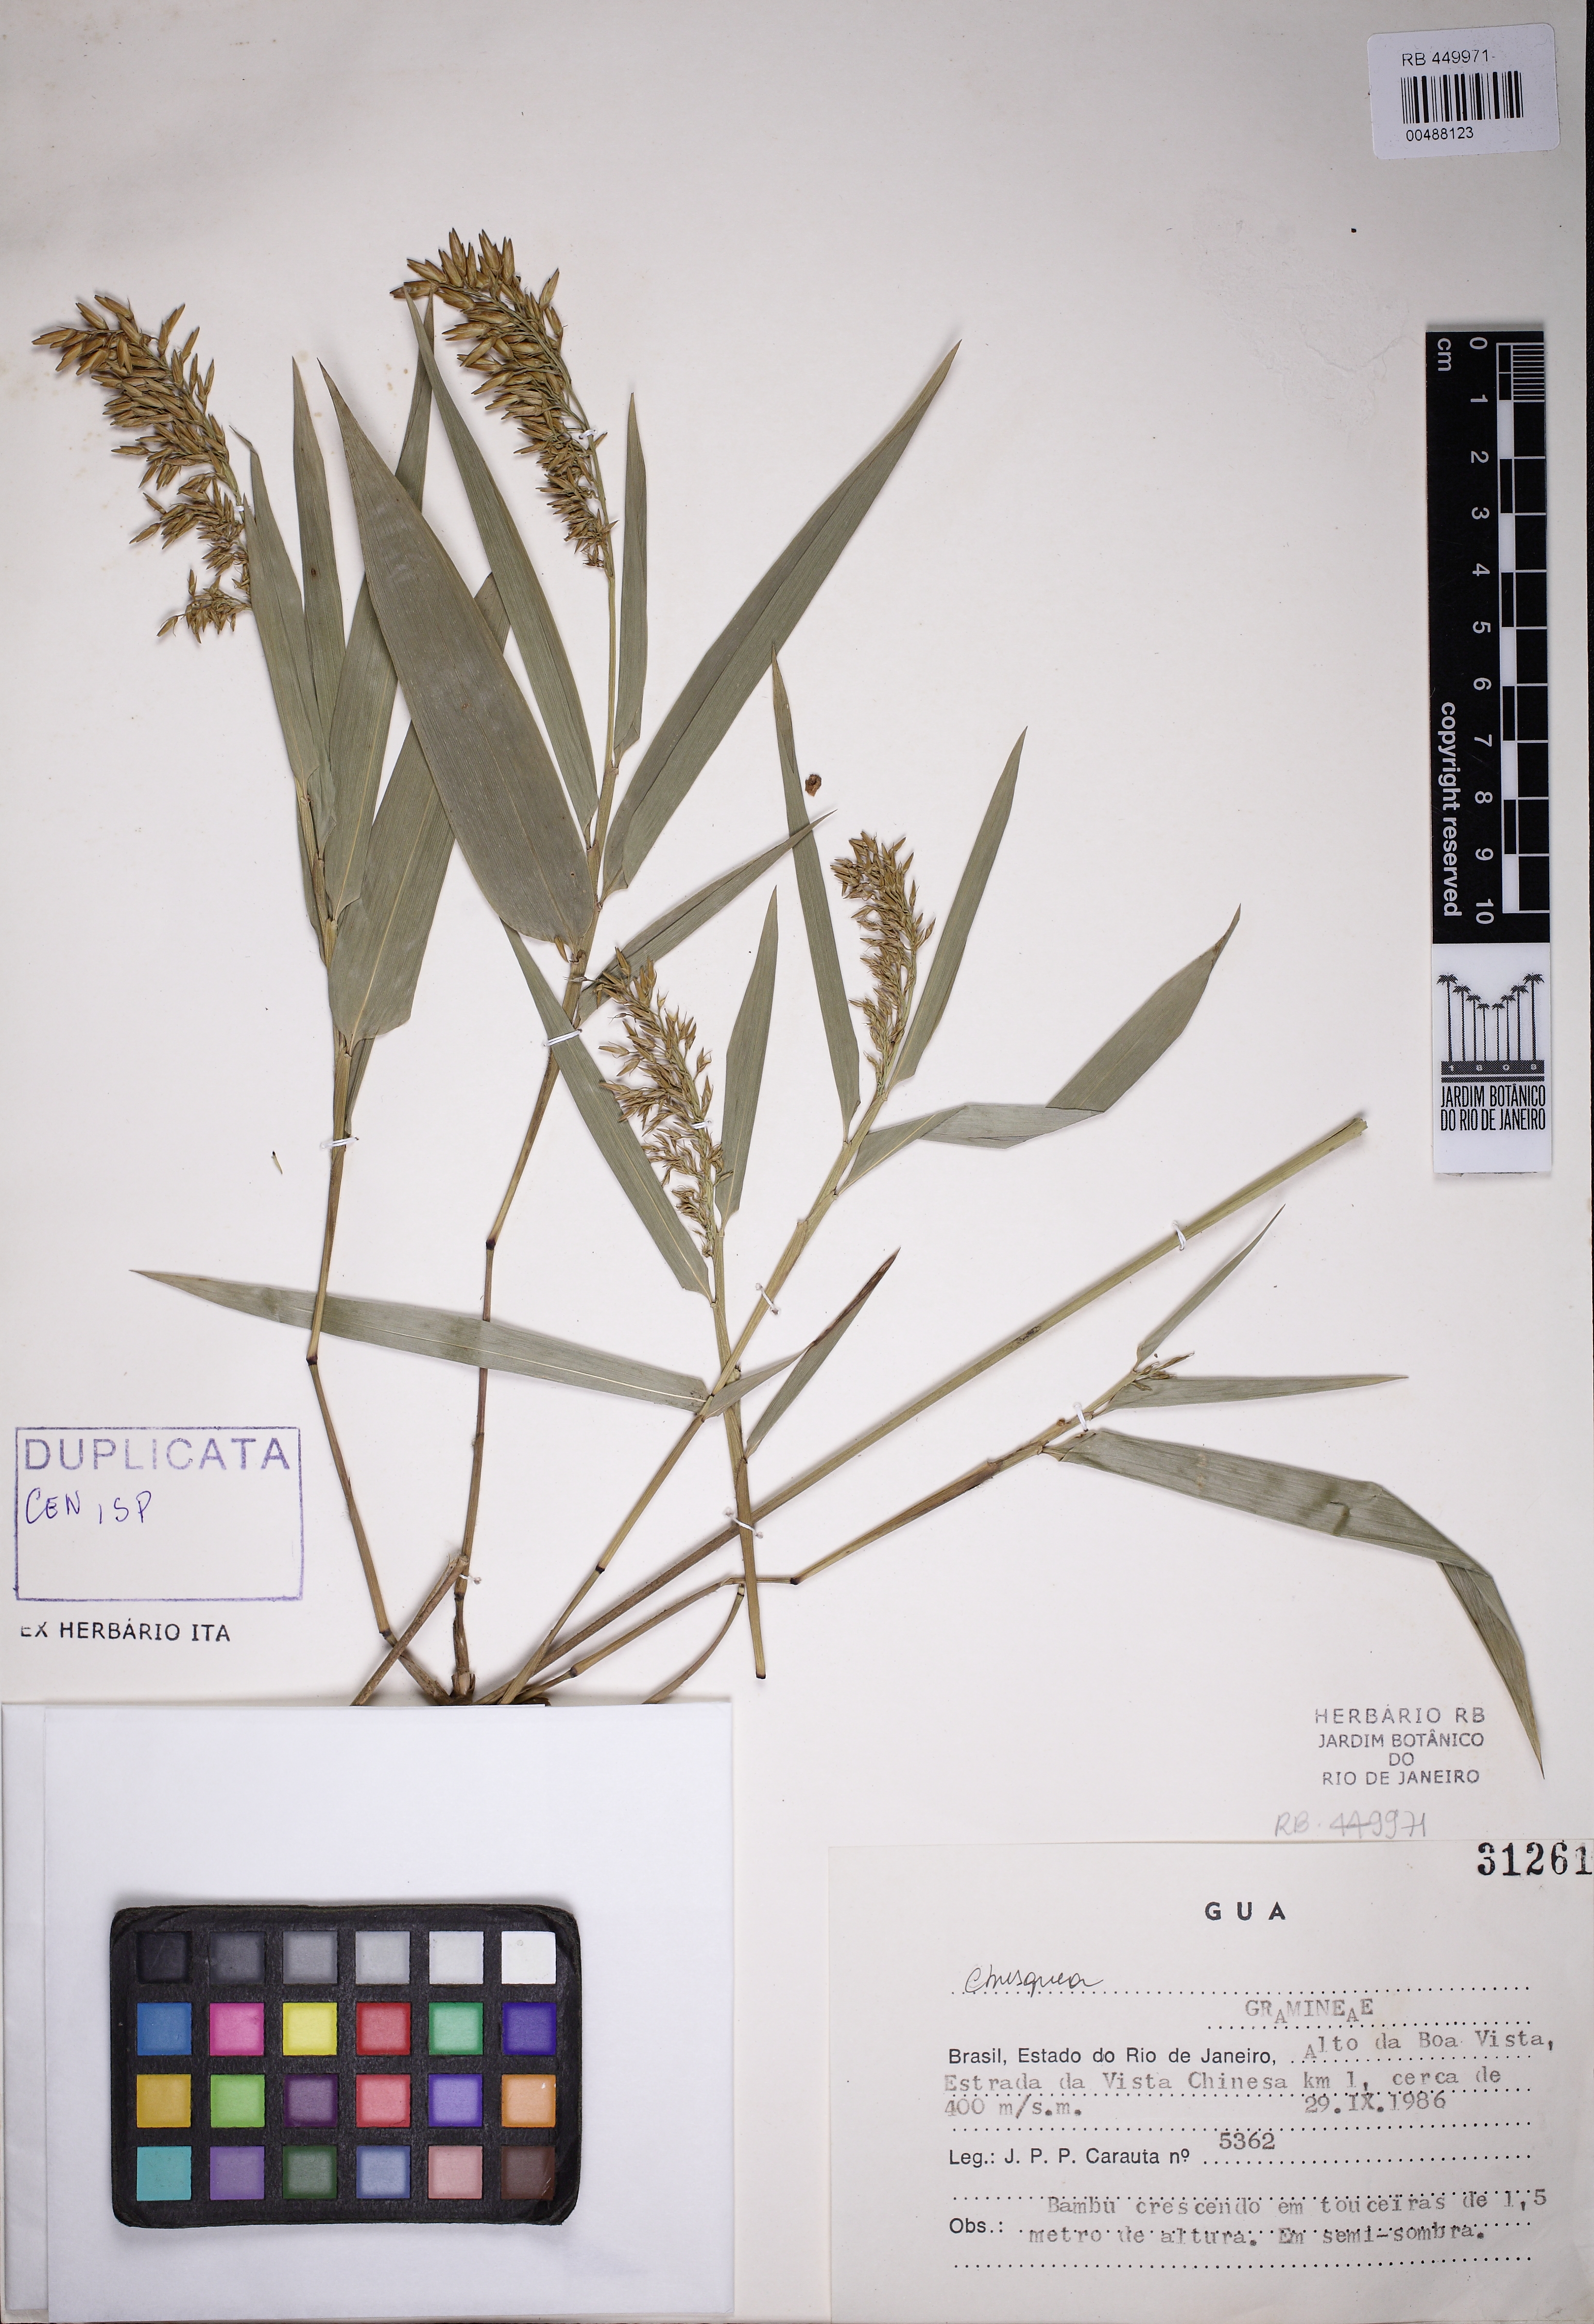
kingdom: Plantae
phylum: Tracheophyta
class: Liliopsida
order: Poales
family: Poaceae
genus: Chusquea
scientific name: Chusquea bambusoides
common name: Brazil scrambling bamboo
